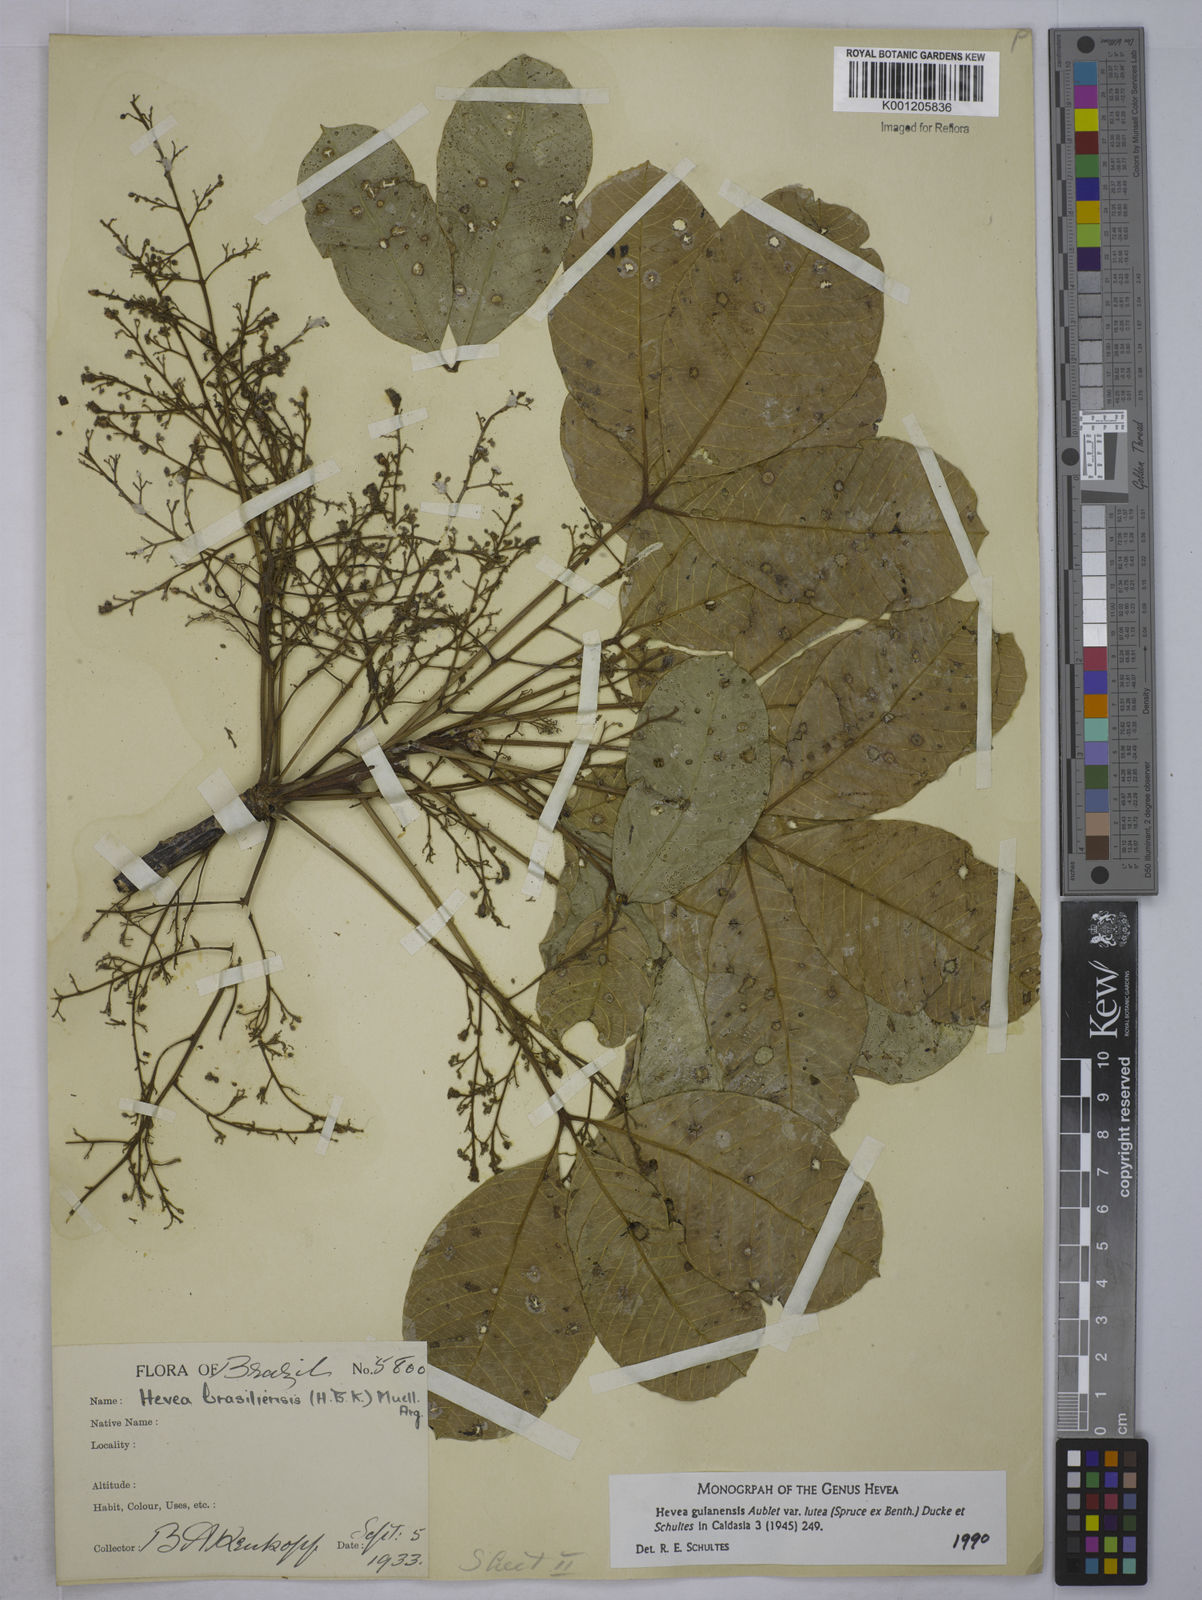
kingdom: Plantae
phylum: Tracheophyta
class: Magnoliopsida
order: Malpighiales
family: Euphorbiaceae
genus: Hevea
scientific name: Hevea guianensis
